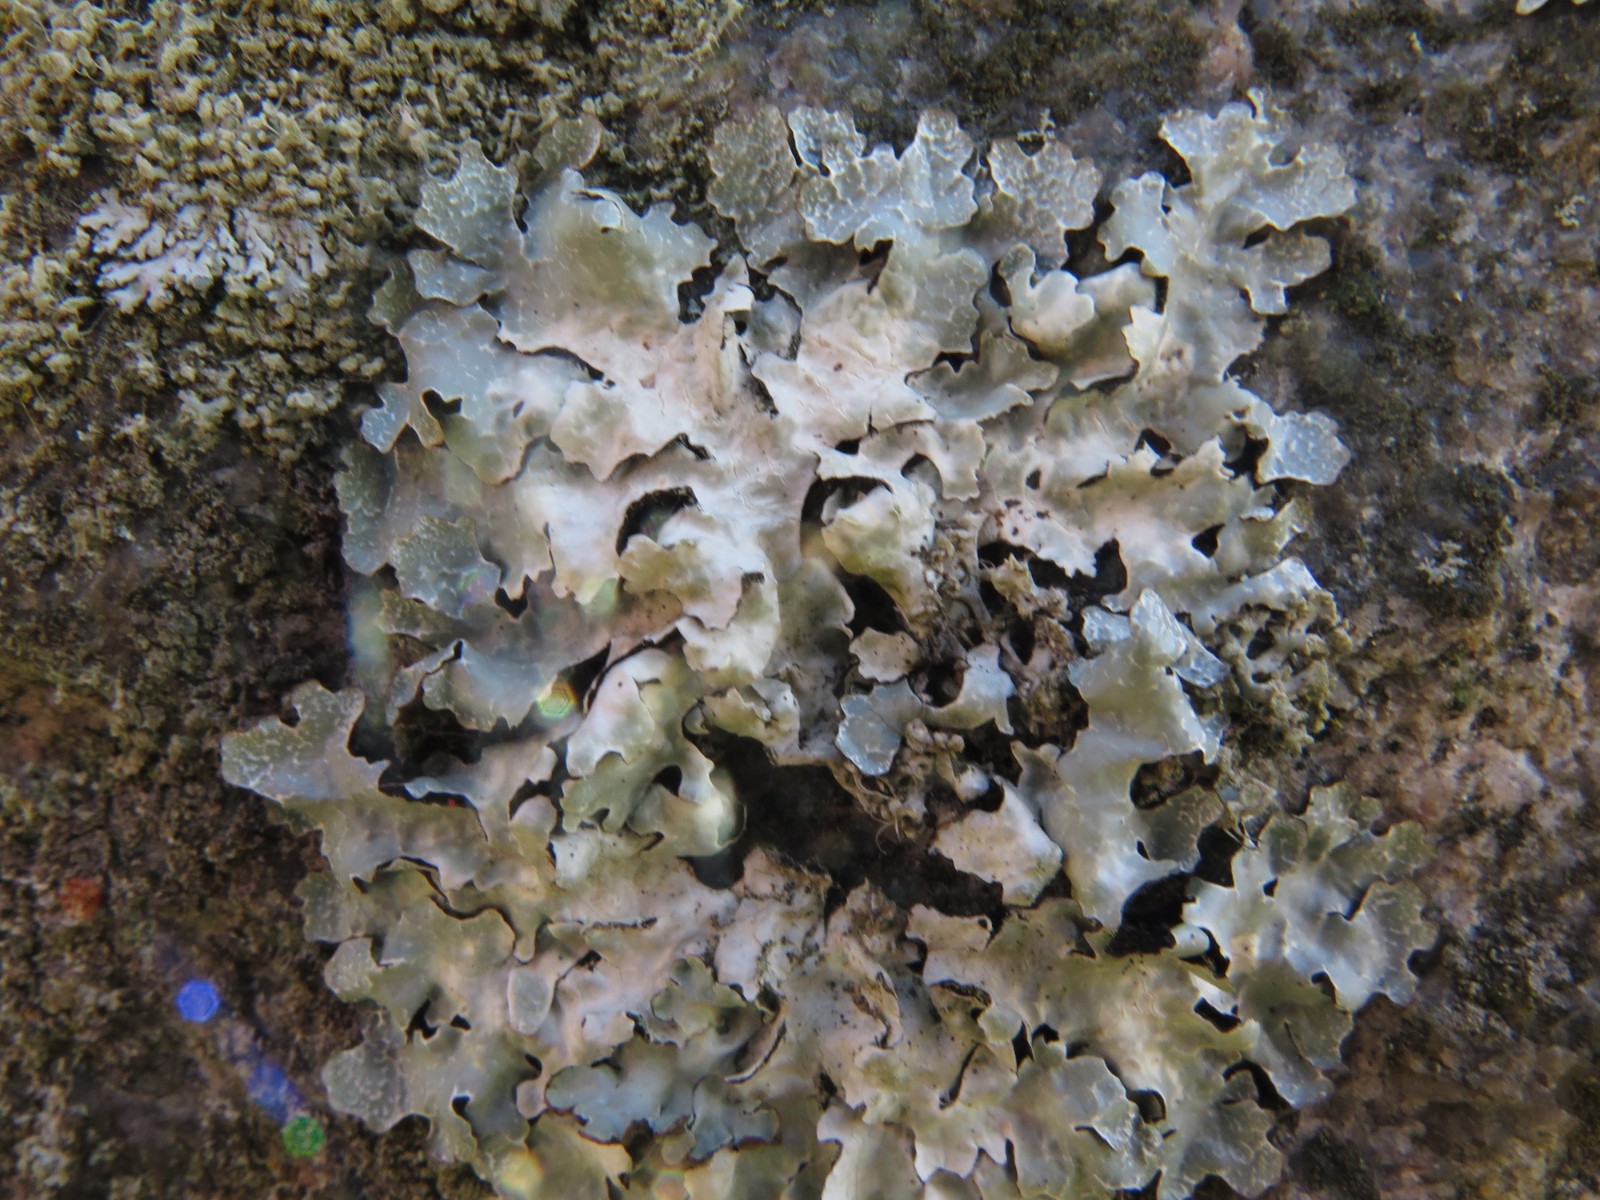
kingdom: Fungi
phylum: Ascomycota
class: Lecanoromycetes
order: Lecanorales
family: Parmeliaceae
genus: Parmelia
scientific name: Parmelia sulcata
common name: rynket skållav
